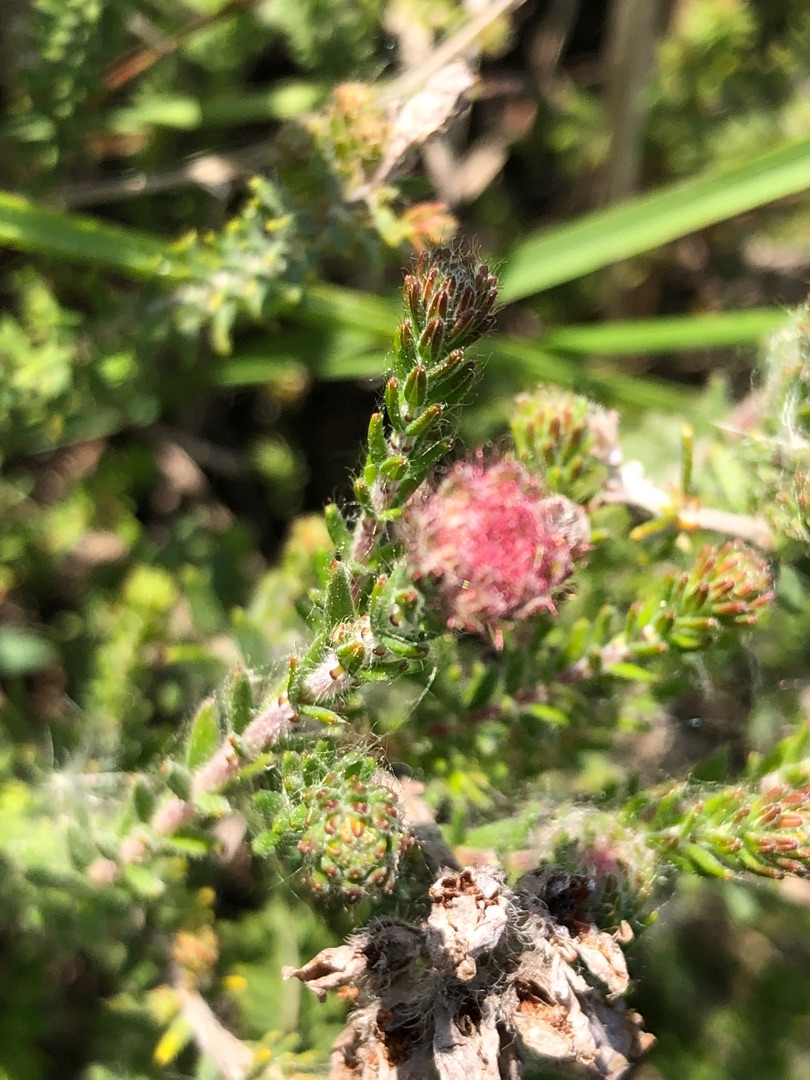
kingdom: Plantae
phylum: Tracheophyta
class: Magnoliopsida
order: Ericales
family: Ericaceae
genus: Erica
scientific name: Erica tetralix
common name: Klokkelyng
